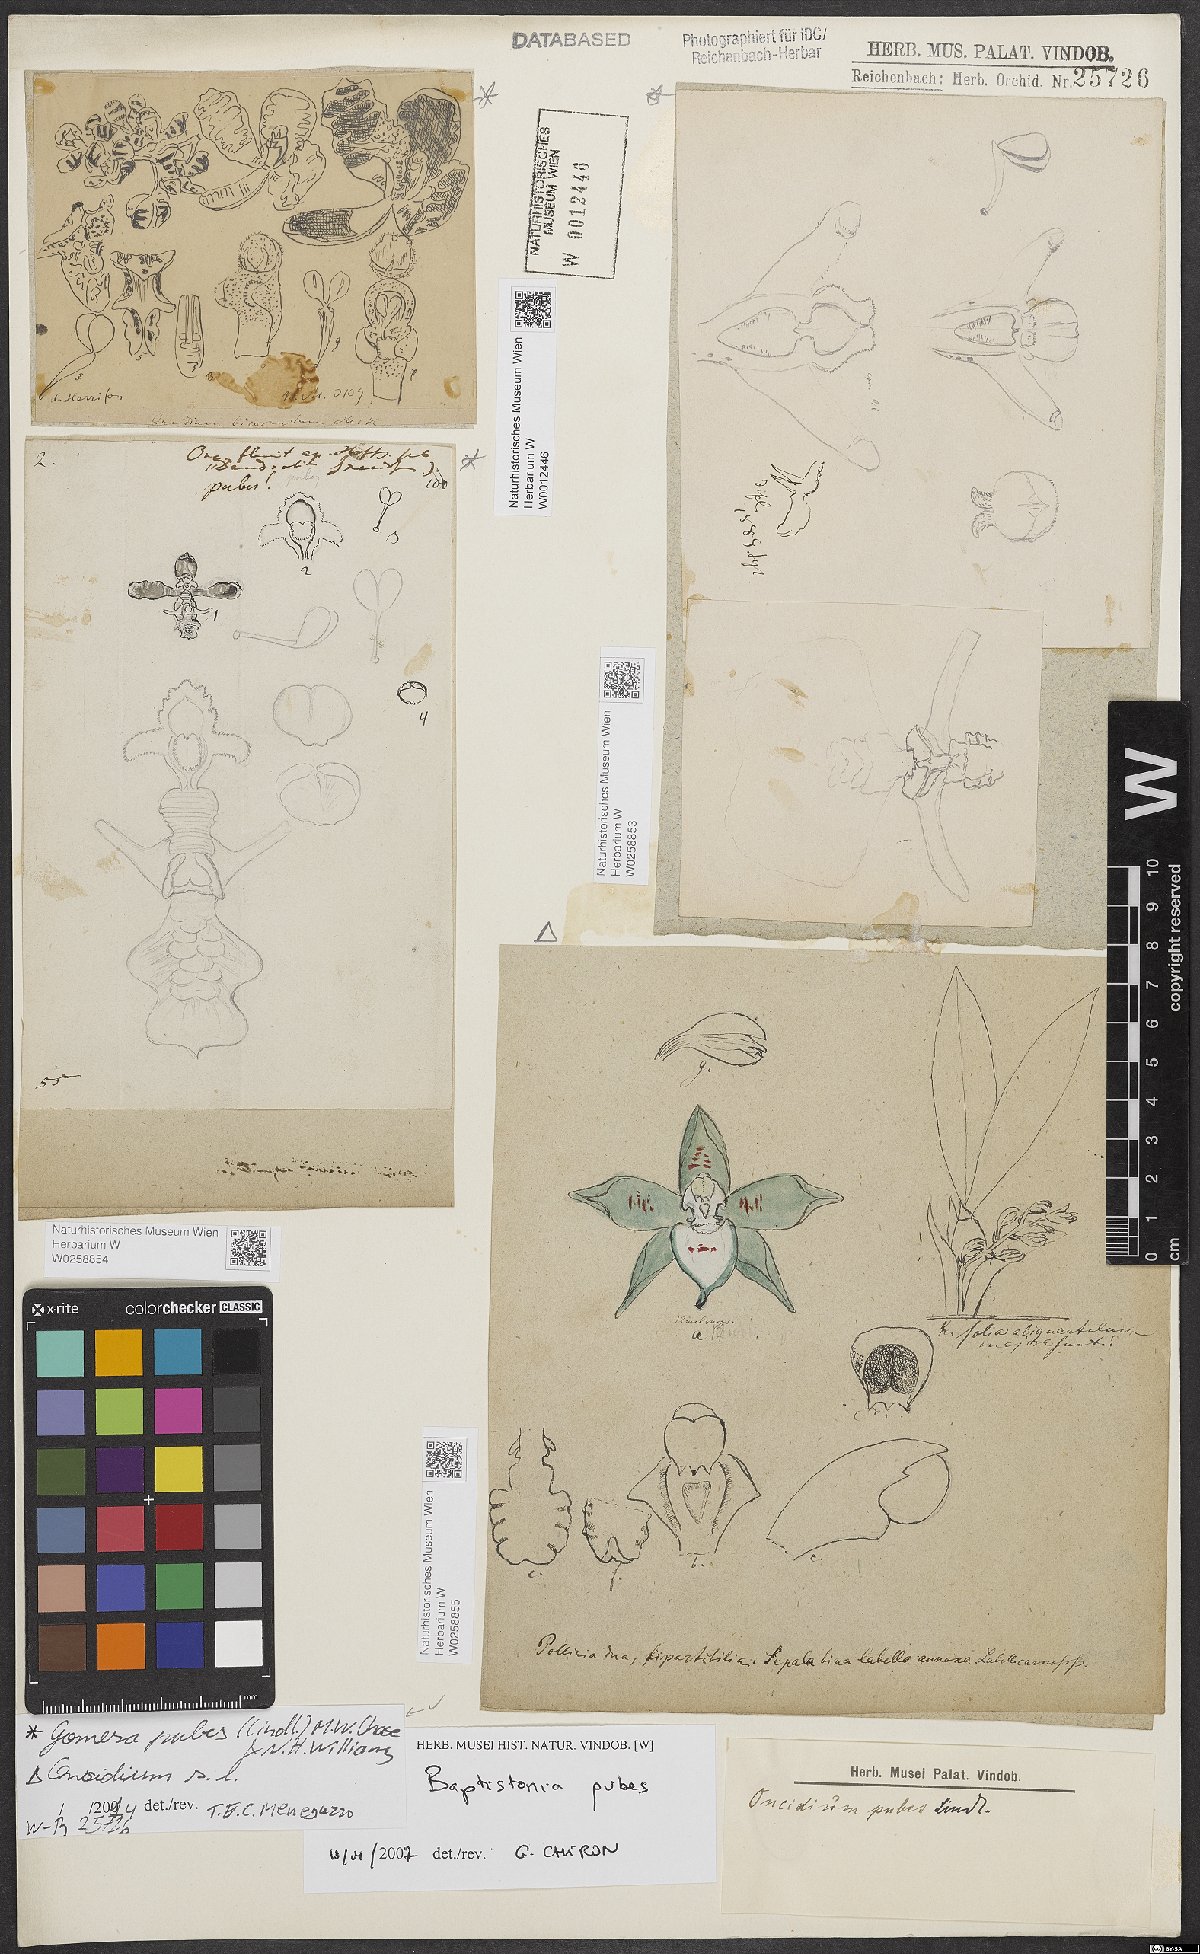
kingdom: Plantae
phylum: Tracheophyta
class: Liliopsida
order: Asparagales
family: Orchidaceae
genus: Gomesa
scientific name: Gomesa pubes
